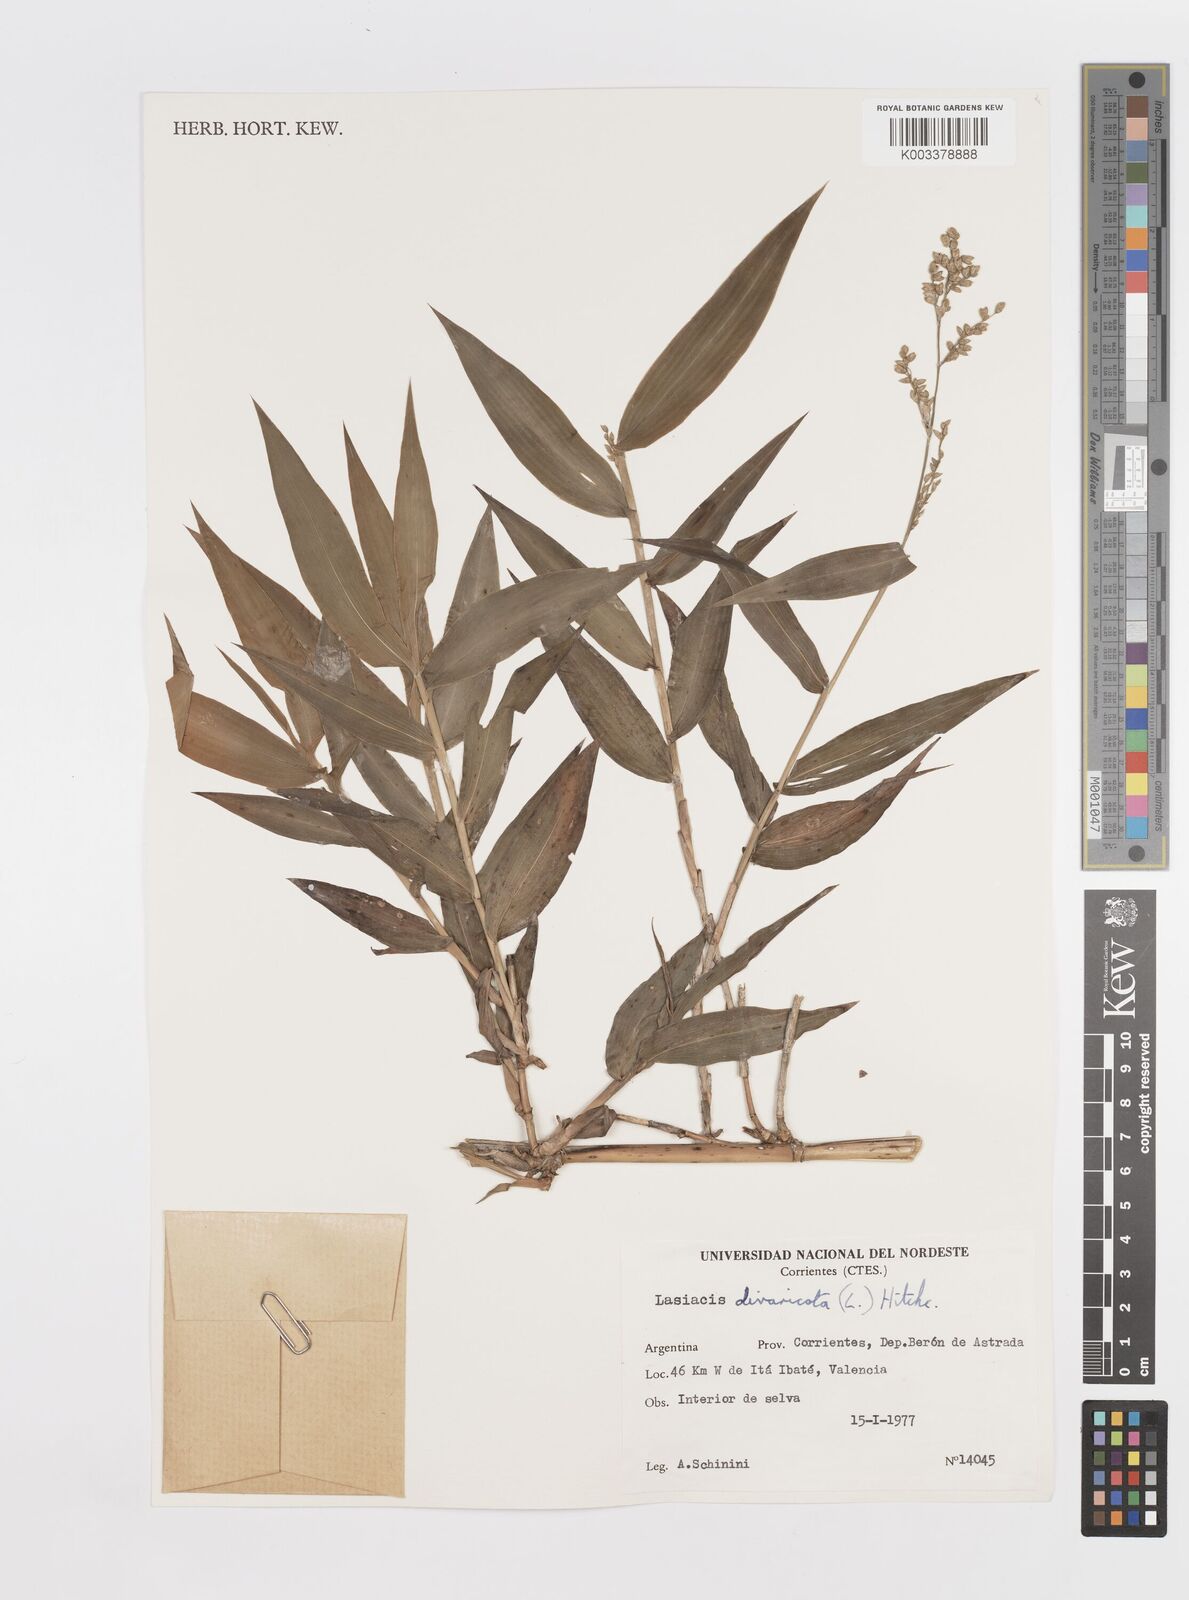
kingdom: Plantae
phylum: Tracheophyta
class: Liliopsida
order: Poales
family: Poaceae
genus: Lasiacis
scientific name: Lasiacis maculata
